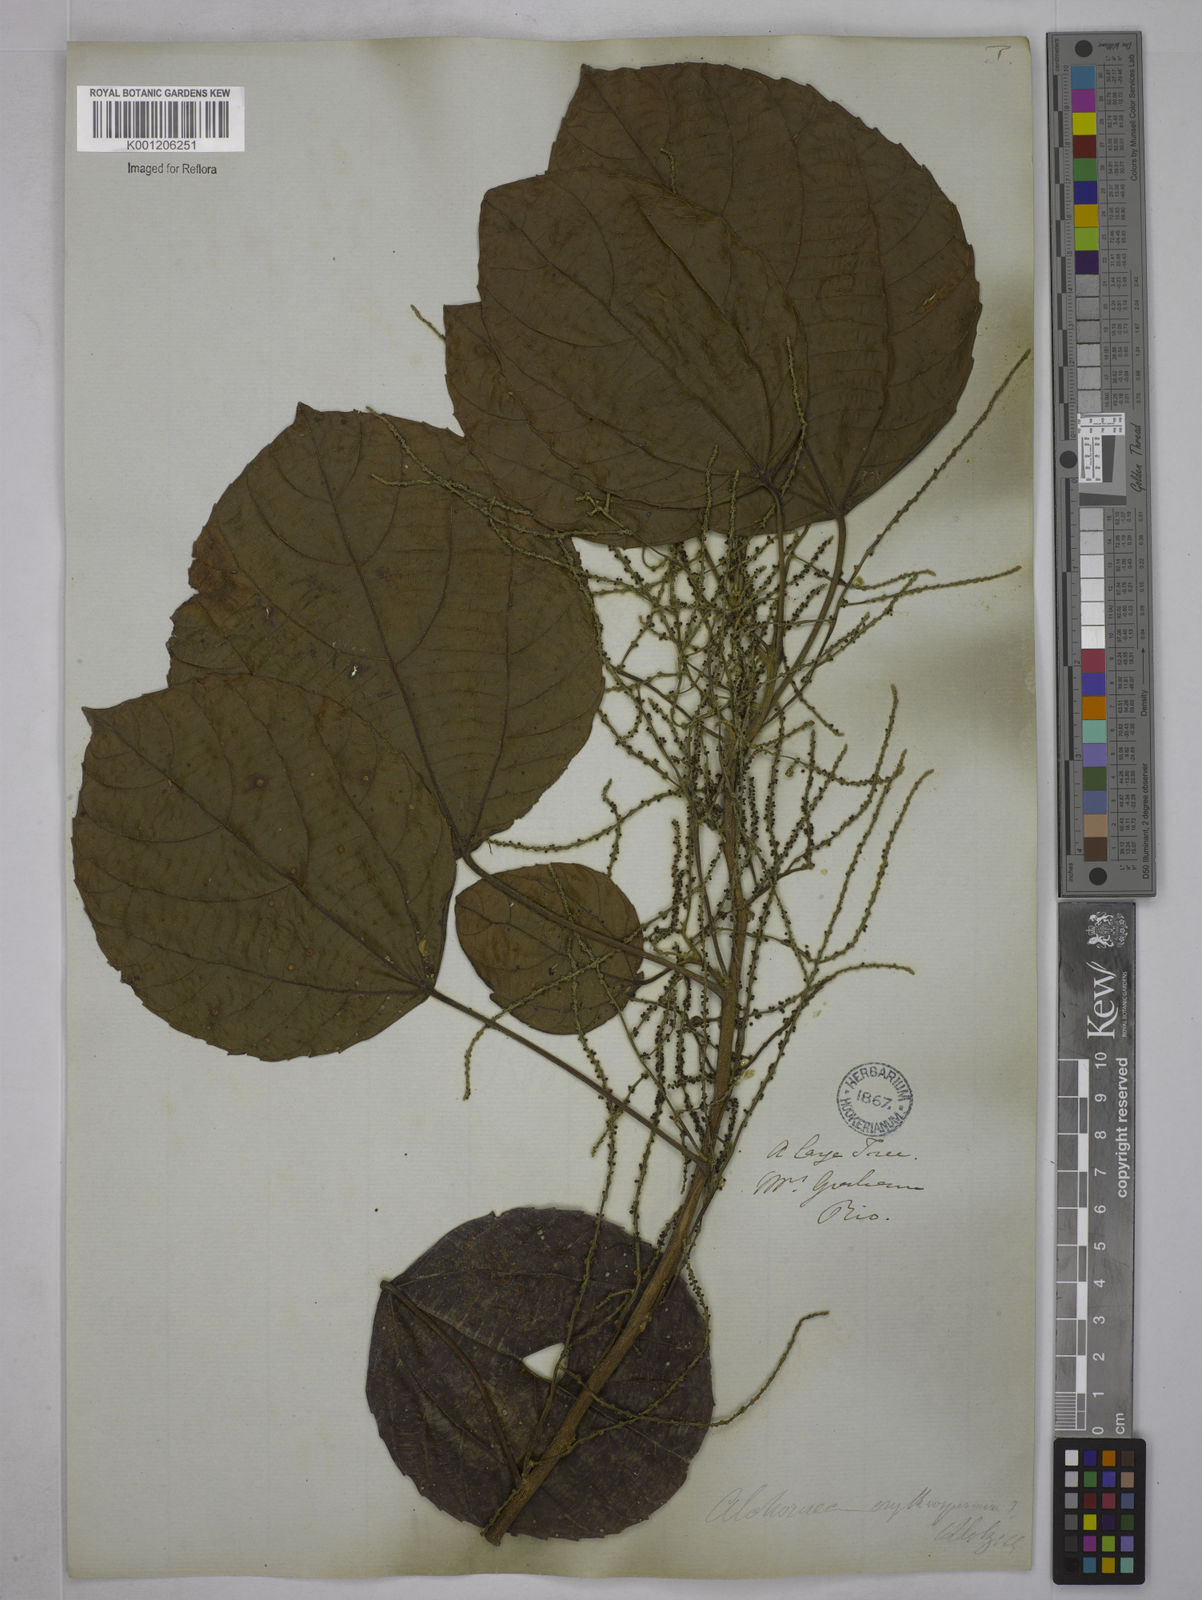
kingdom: Plantae
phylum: Tracheophyta
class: Magnoliopsida
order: Malpighiales
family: Euphorbiaceae
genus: Alchornea
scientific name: Alchornea glandulosa
